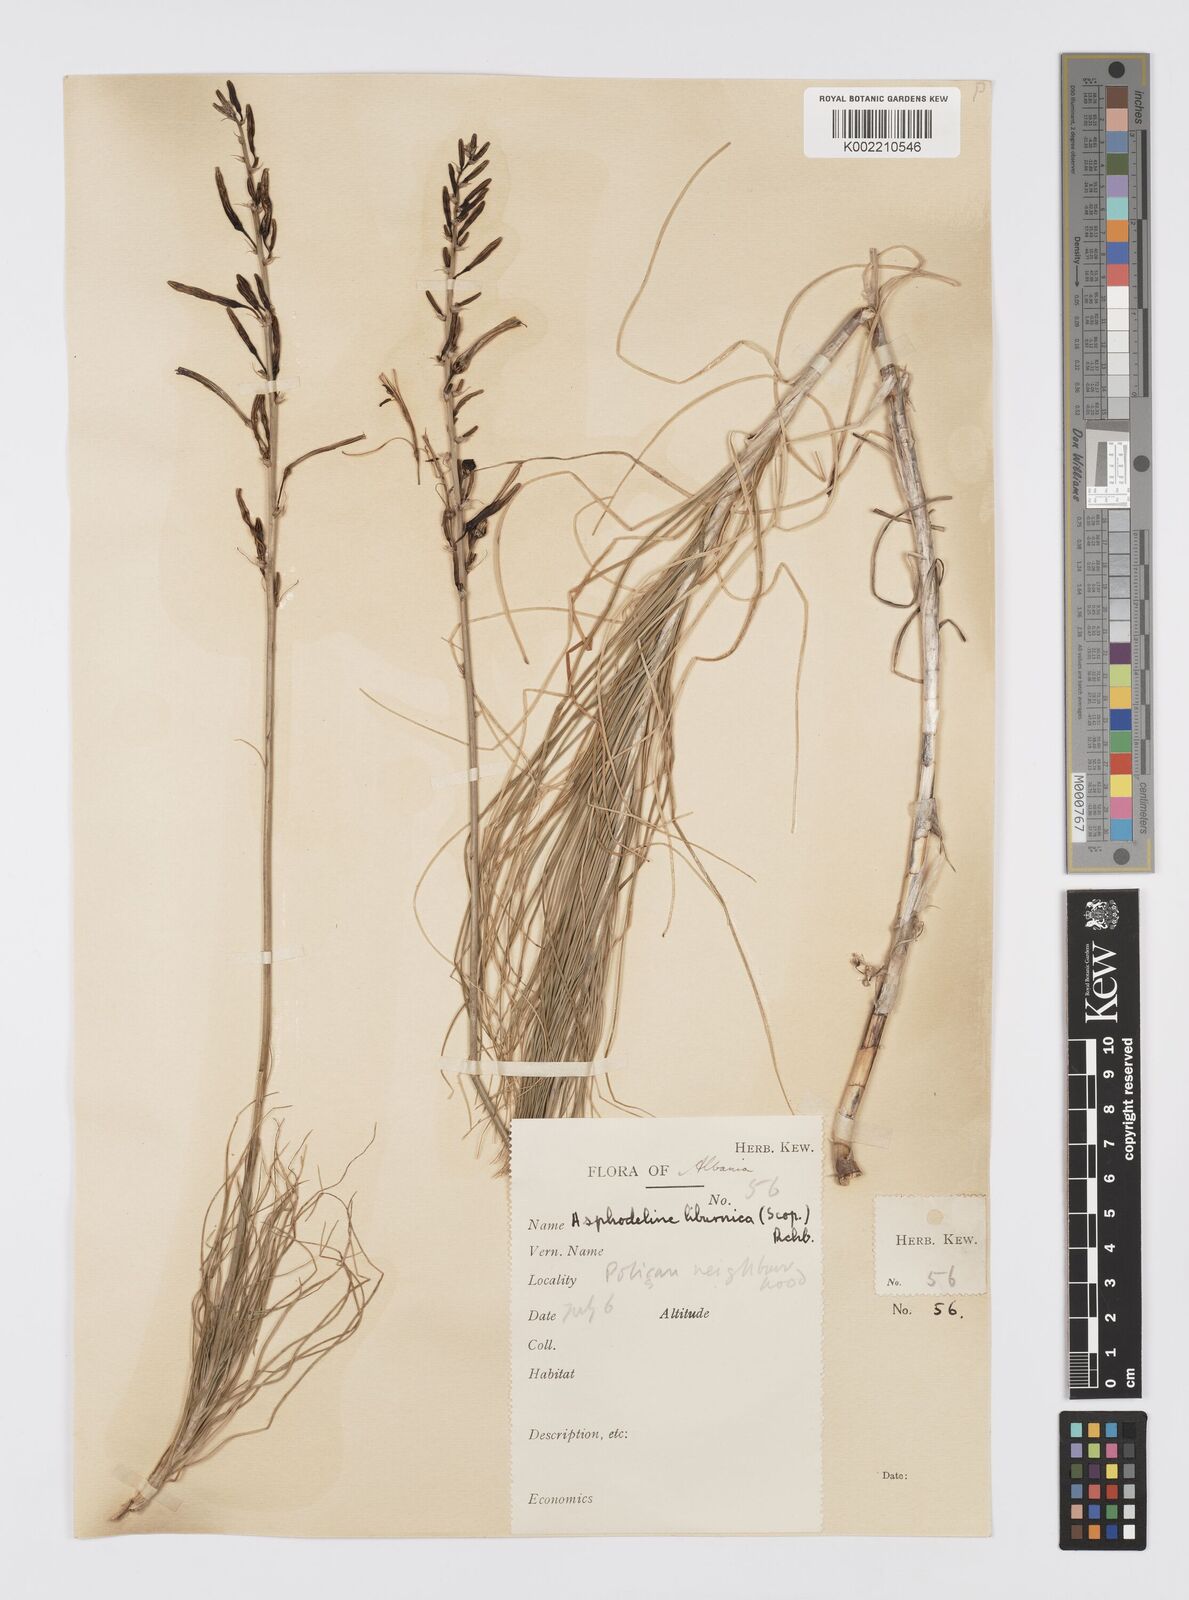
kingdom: Plantae
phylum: Tracheophyta
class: Liliopsida
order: Asparagales
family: Asphodelaceae
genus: Asphodeline
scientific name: Asphodeline liburnica
